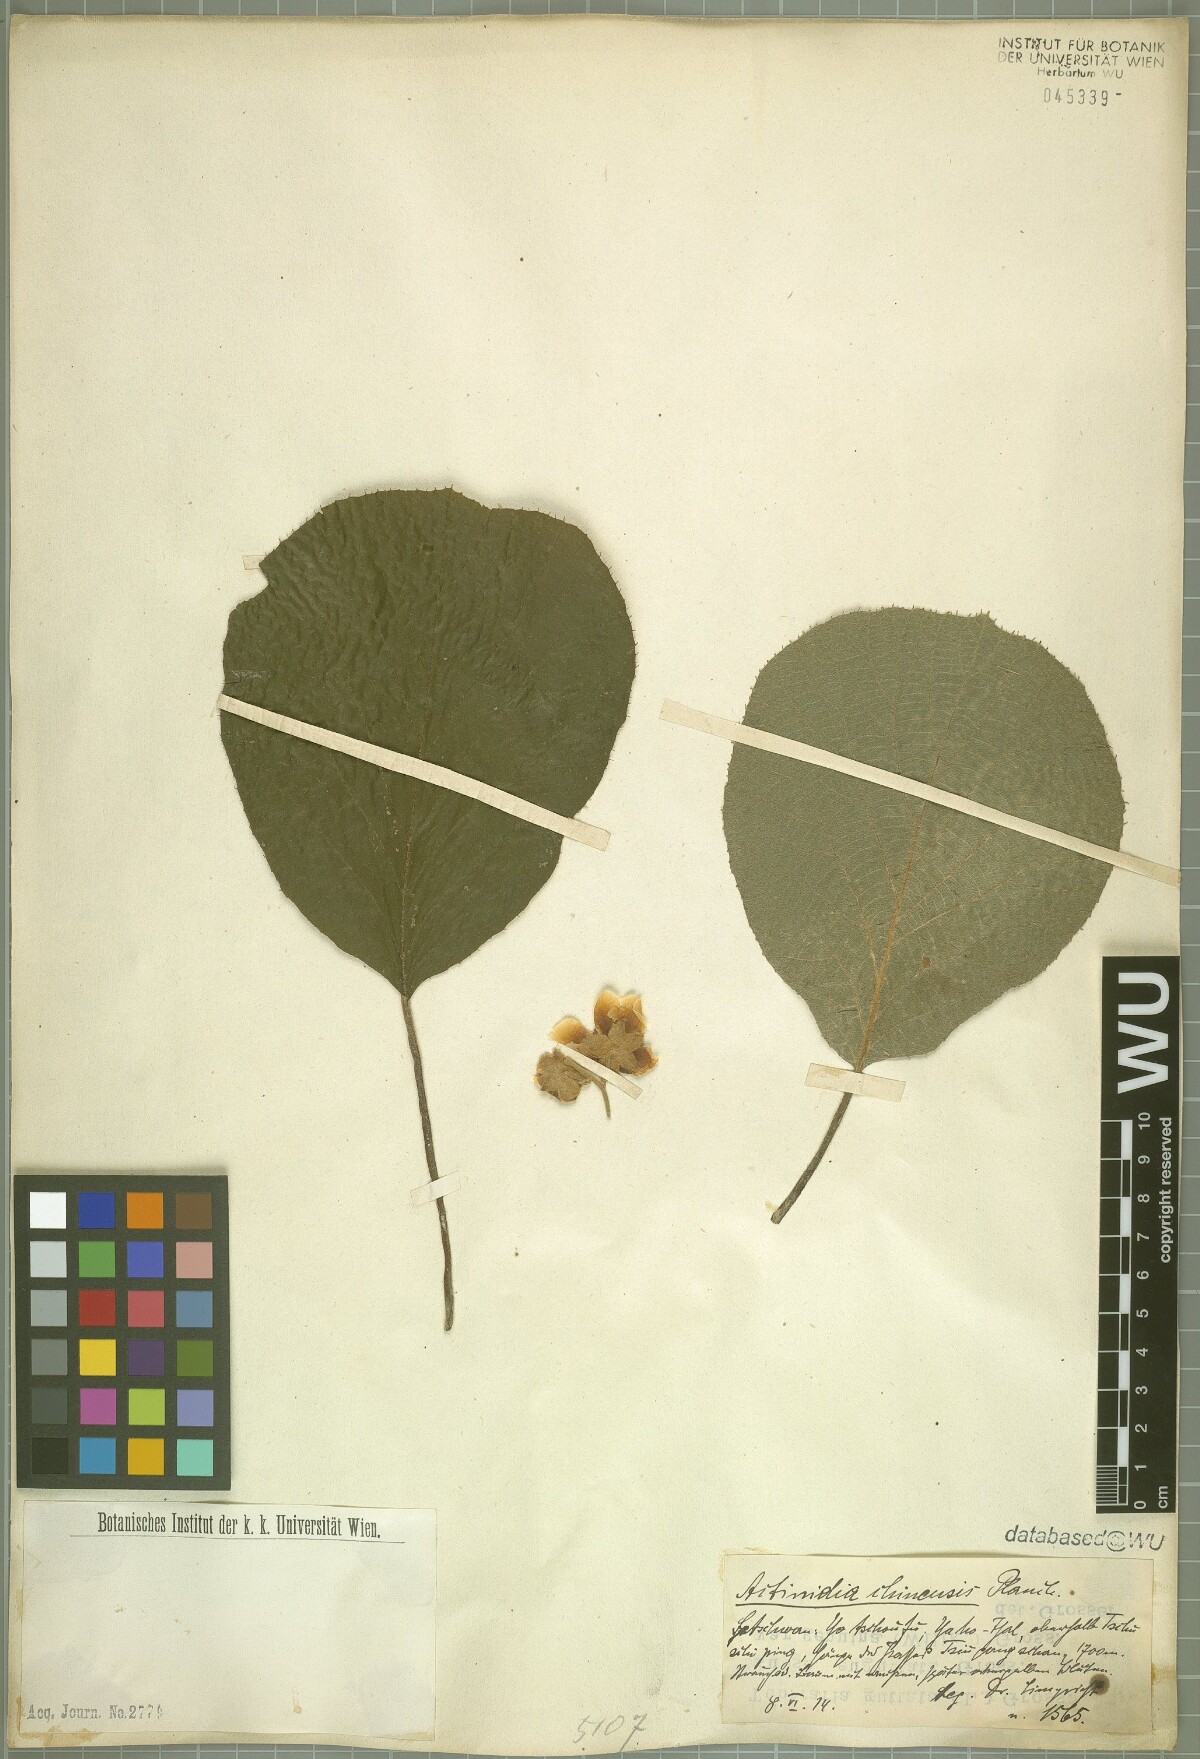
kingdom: Plantae
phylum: Tracheophyta
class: Magnoliopsida
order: Ericales
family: Actinidiaceae
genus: Actinidia
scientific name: Actinidia chinensis
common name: Kiwi
